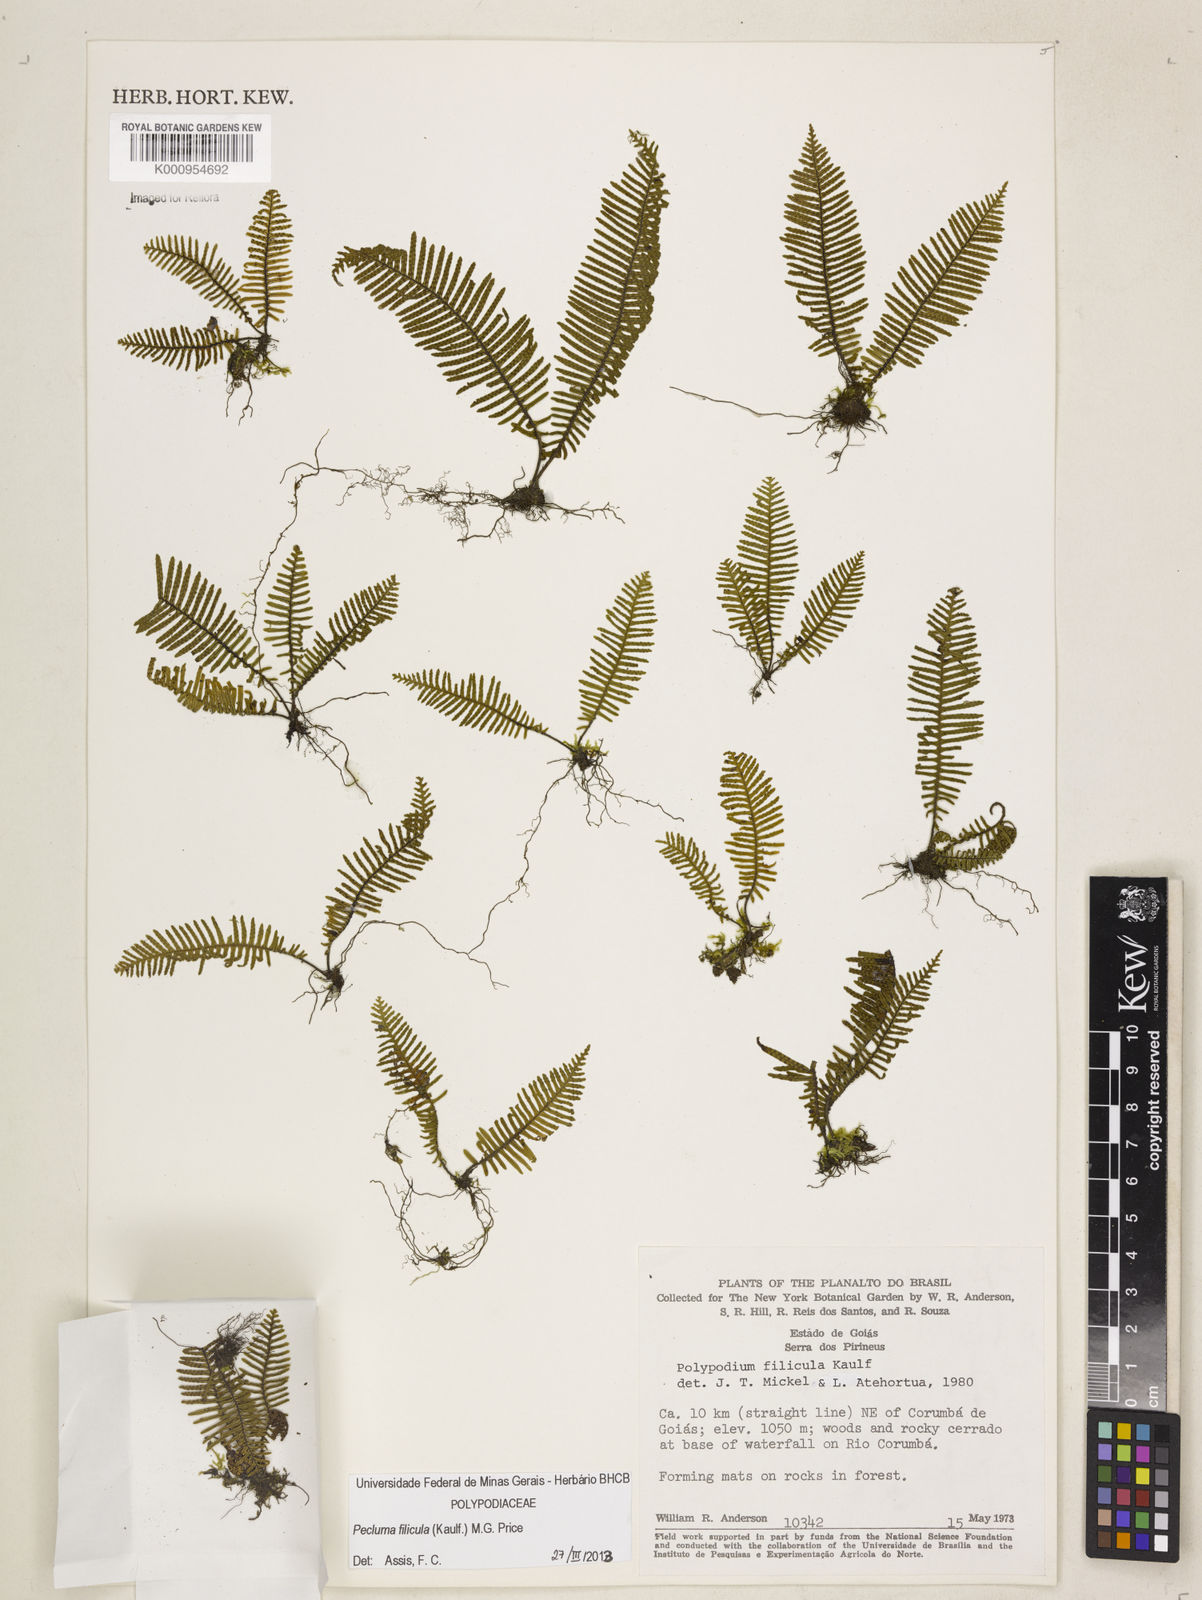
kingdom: Plantae
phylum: Tracheophyta
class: Polypodiopsida
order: Polypodiales
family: Polypodiaceae
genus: Pecluma
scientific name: Pecluma filicula
